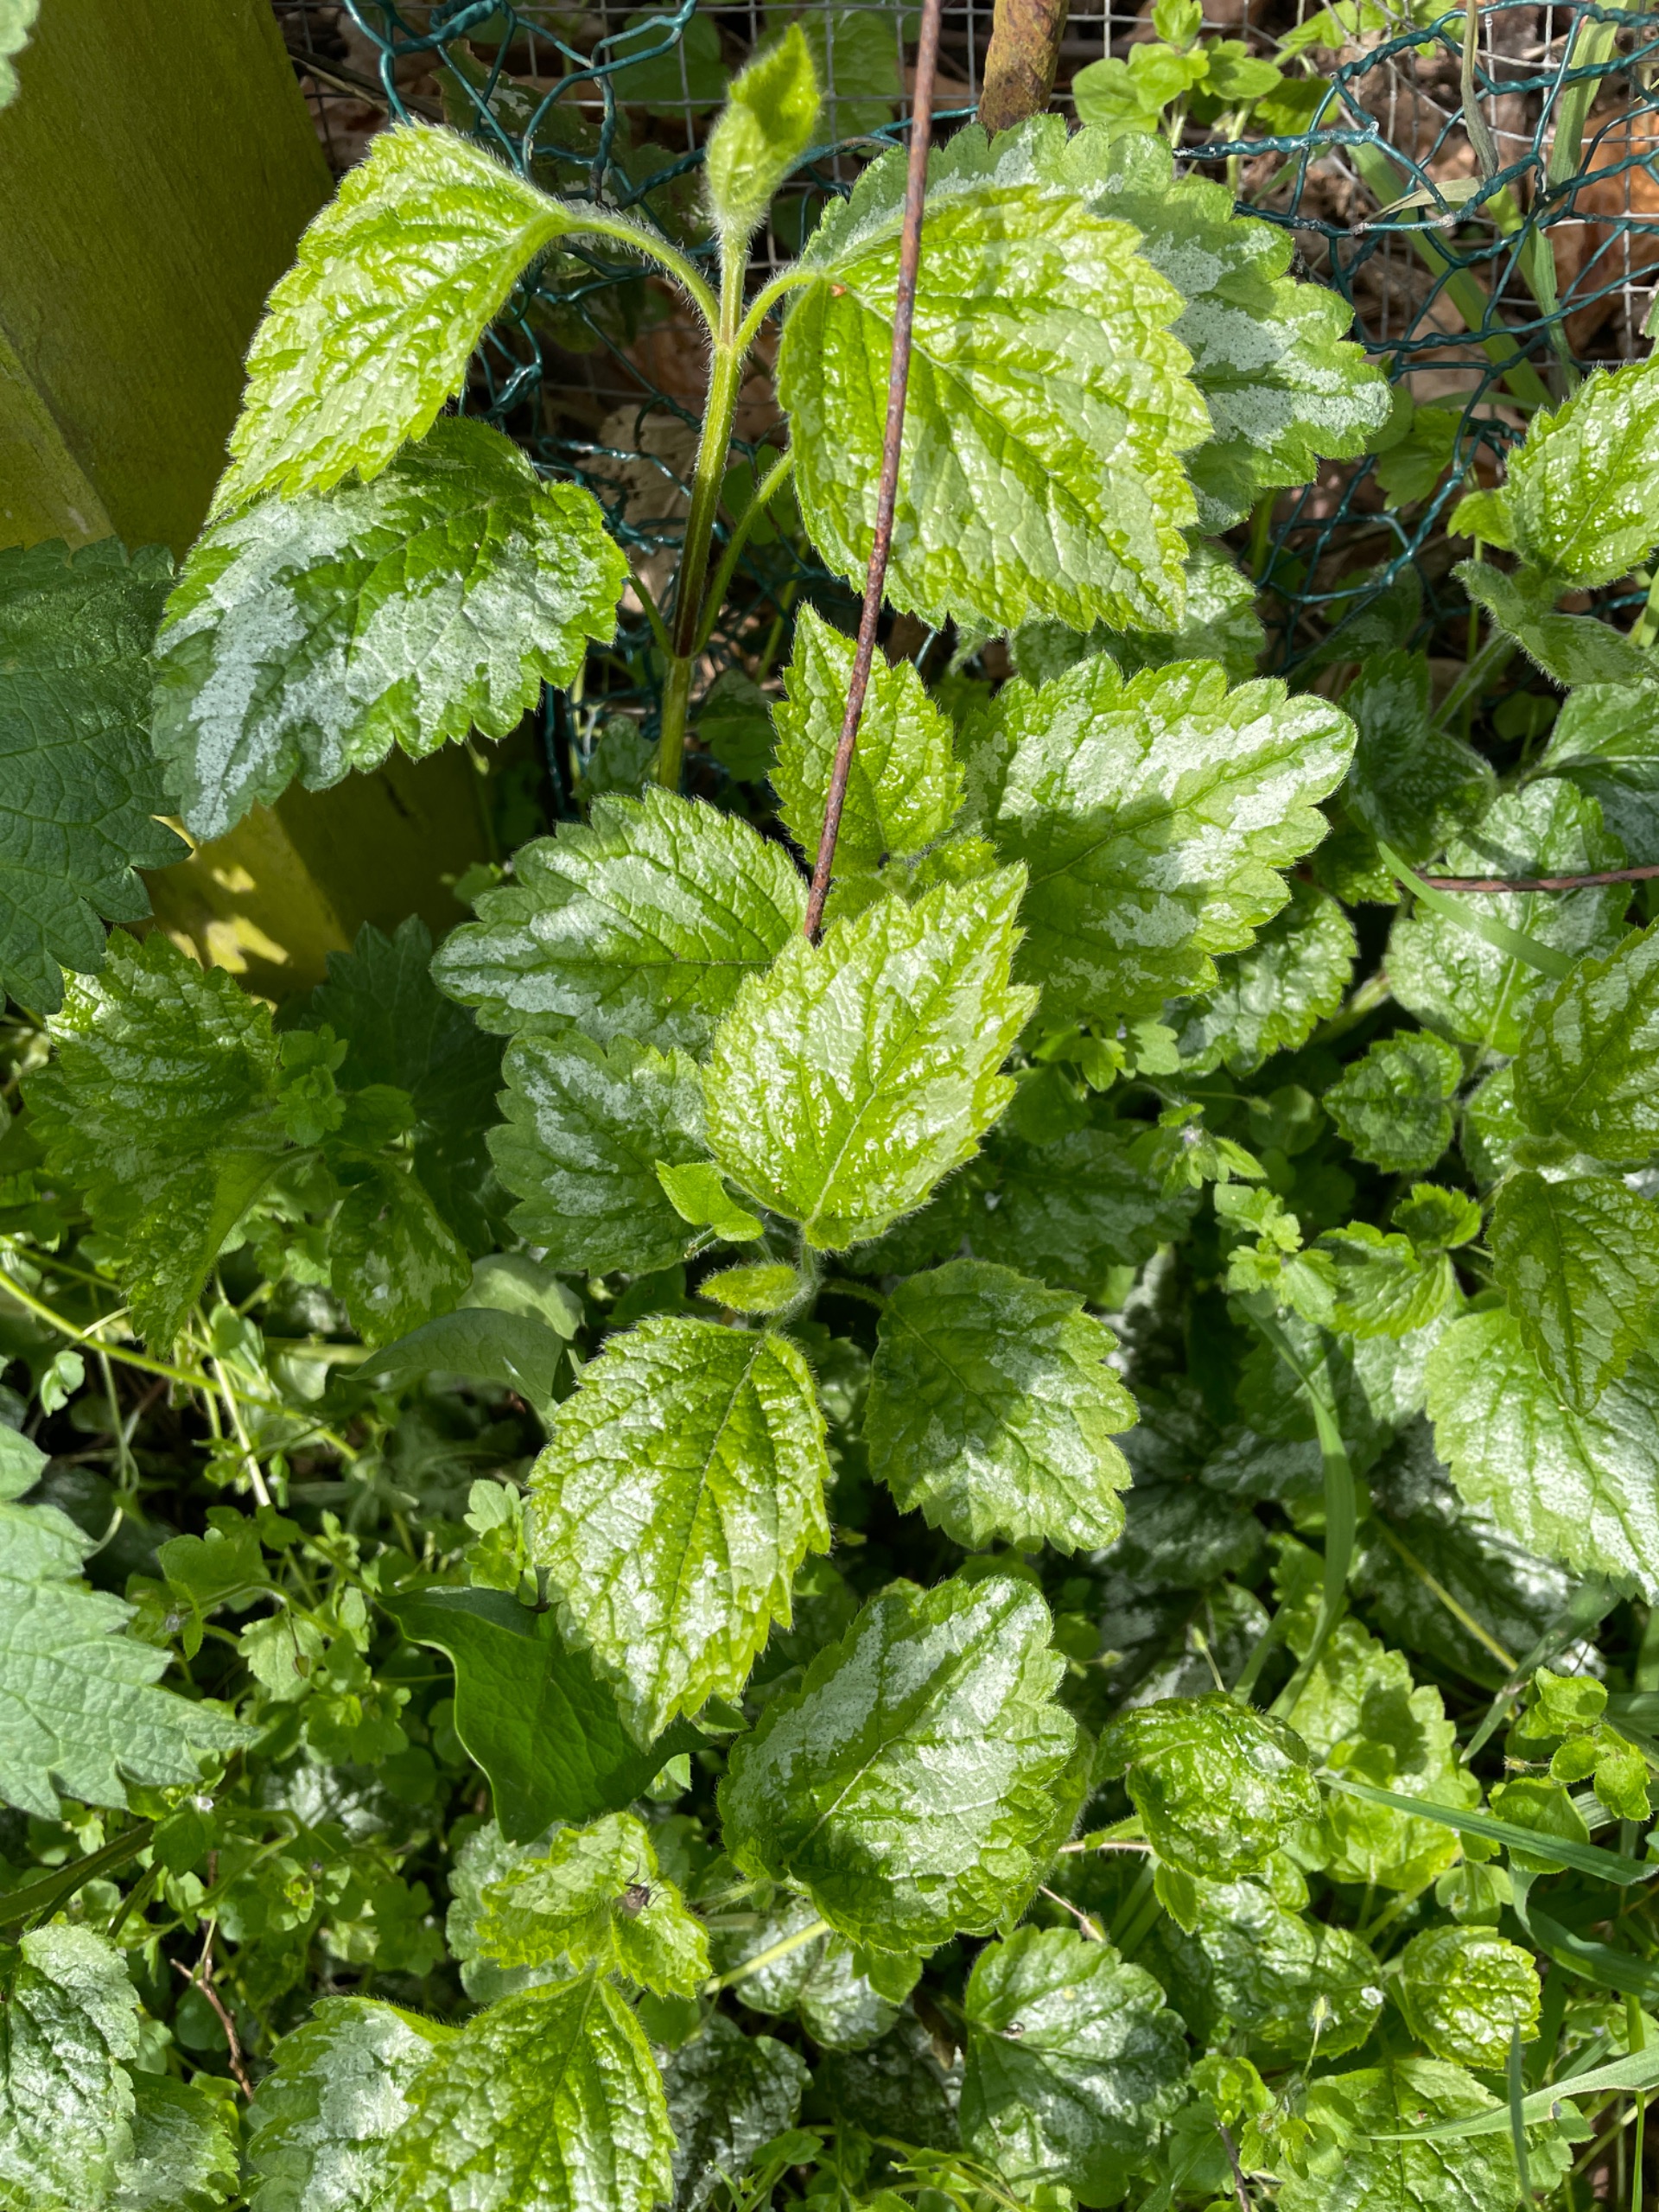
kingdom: Plantae
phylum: Tracheophyta
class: Magnoliopsida
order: Lamiales
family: Lamiaceae
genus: Lamium
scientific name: Lamium galeobdolon
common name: Have-guldnælde
